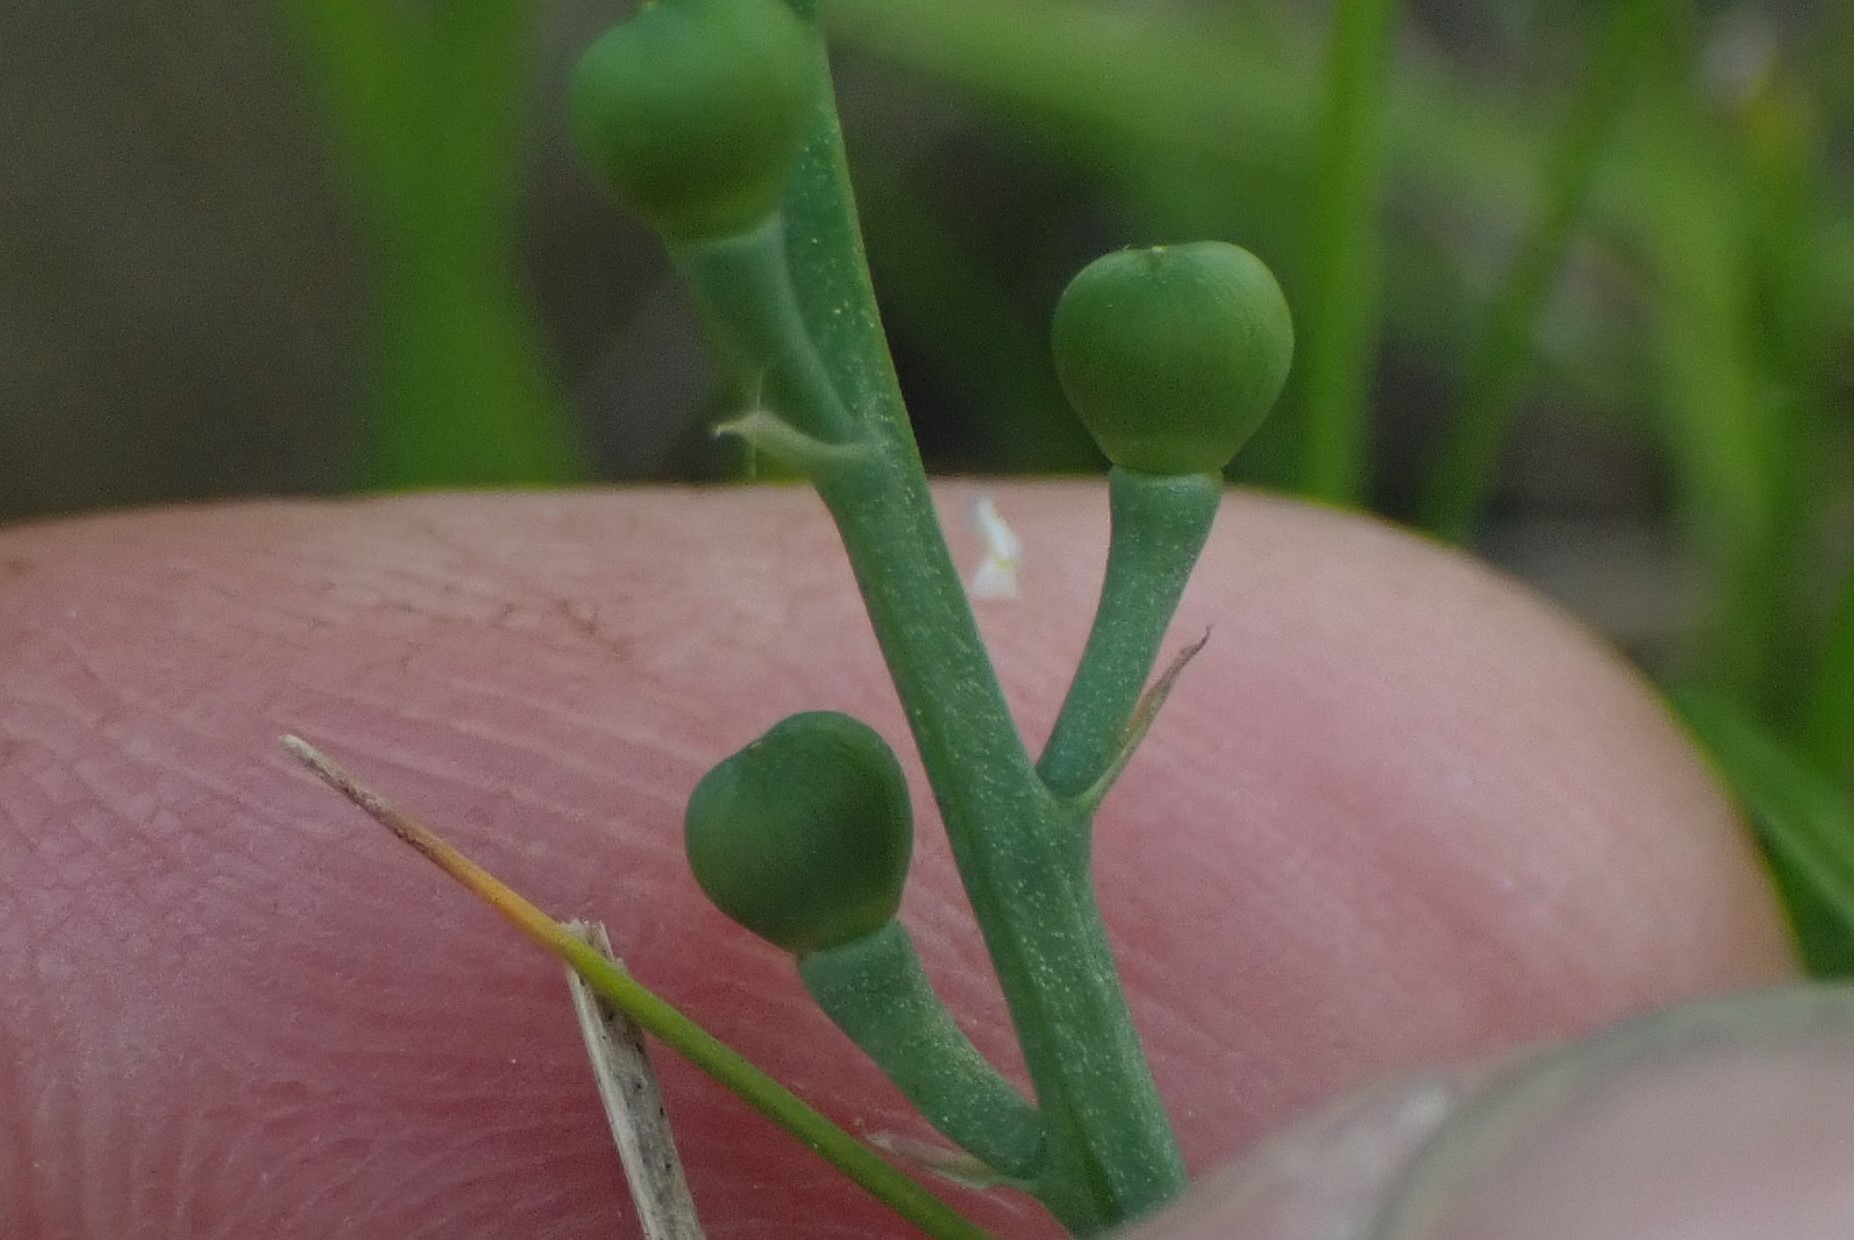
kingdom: Plantae
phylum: Tracheophyta
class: Magnoliopsida
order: Ranunculales
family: Papaveraceae
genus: Fumaria
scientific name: Fumaria officinalis
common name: Læge-jordrøg
